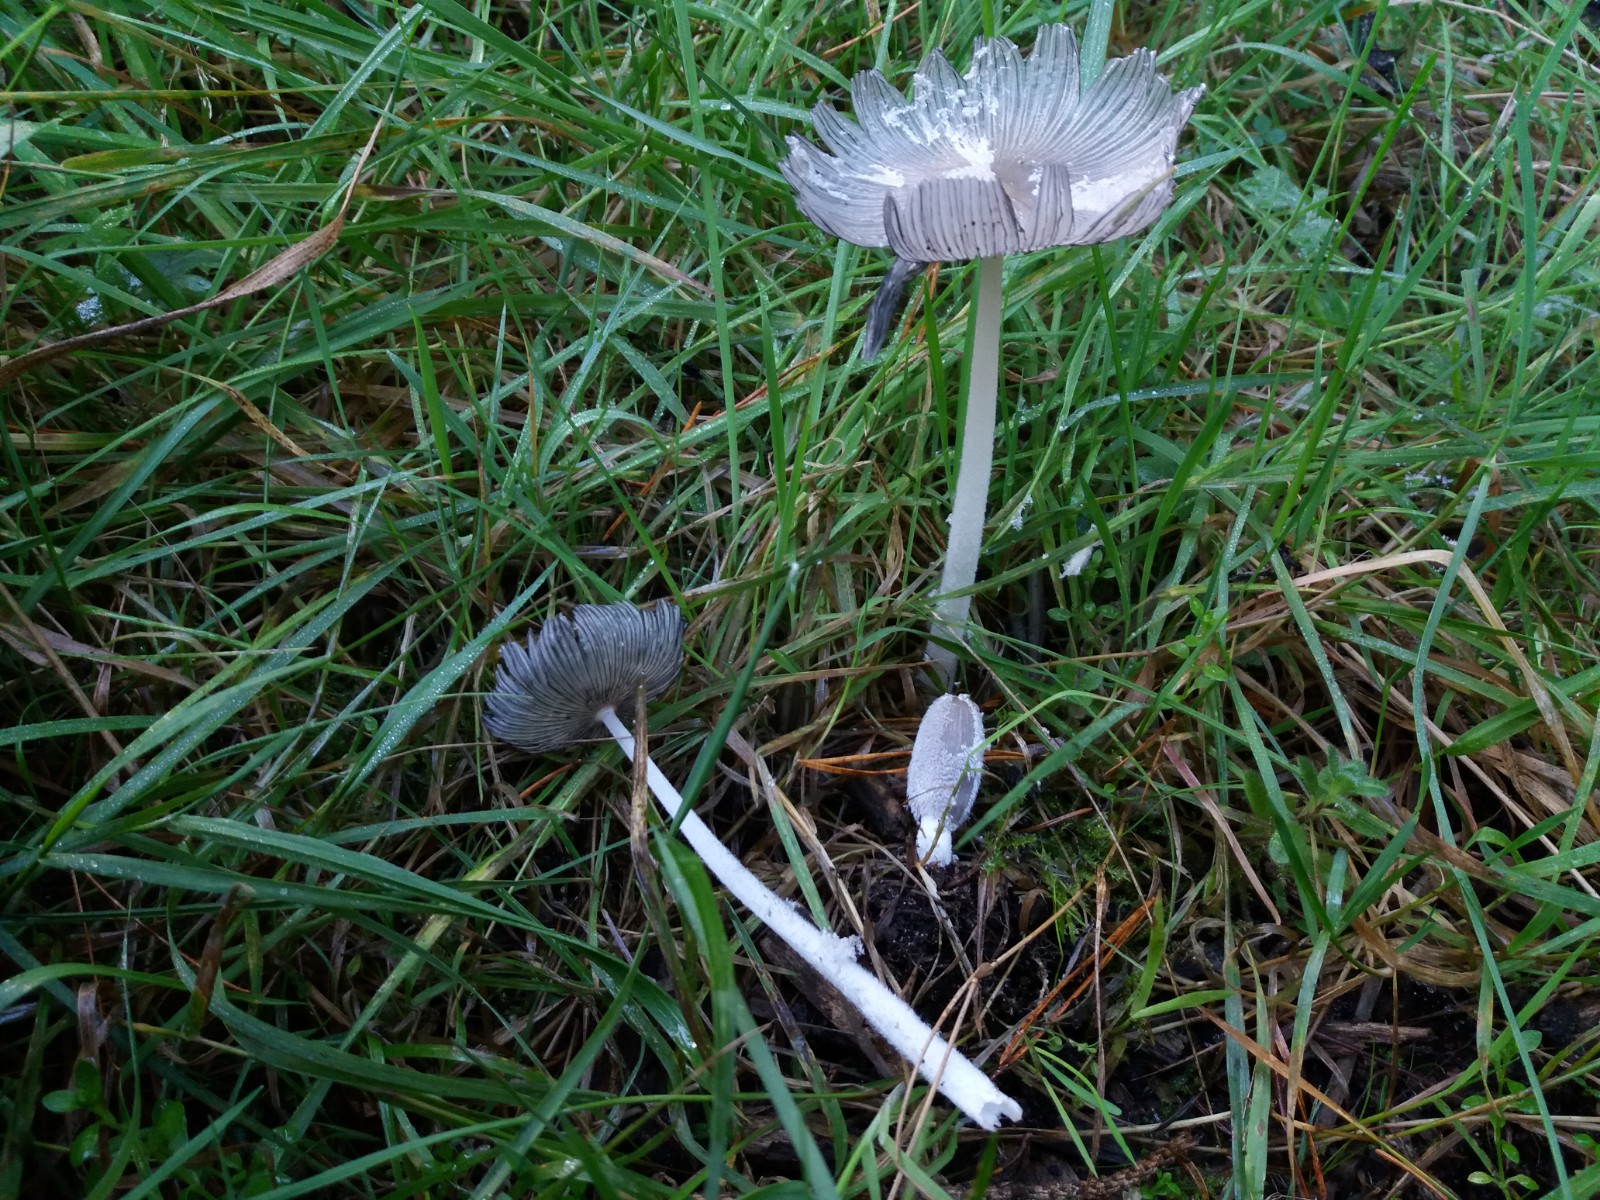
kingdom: Fungi
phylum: Basidiomycota
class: Agaricomycetes
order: Agaricales
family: Psathyrellaceae
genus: Coprinopsis
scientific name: Coprinopsis lagopus
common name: dunstokket blækhat
